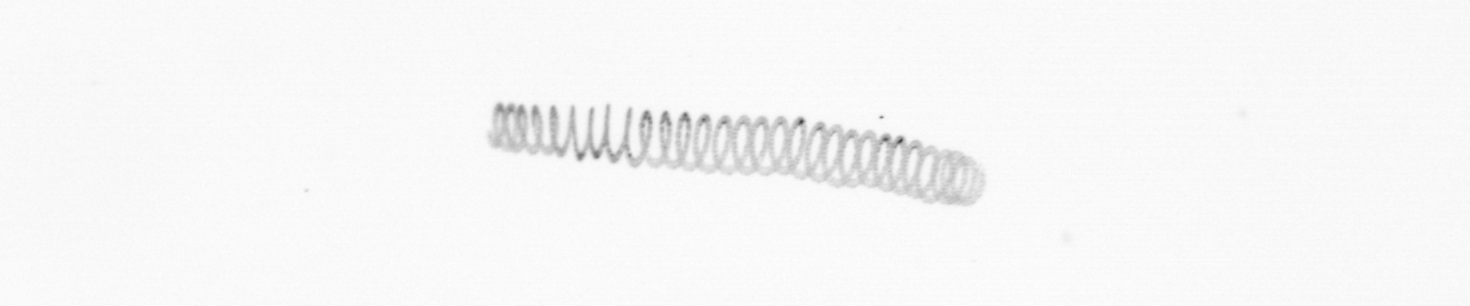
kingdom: Chromista
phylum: Ochrophyta
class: Bacillariophyceae
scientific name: Bacillariophyceae
